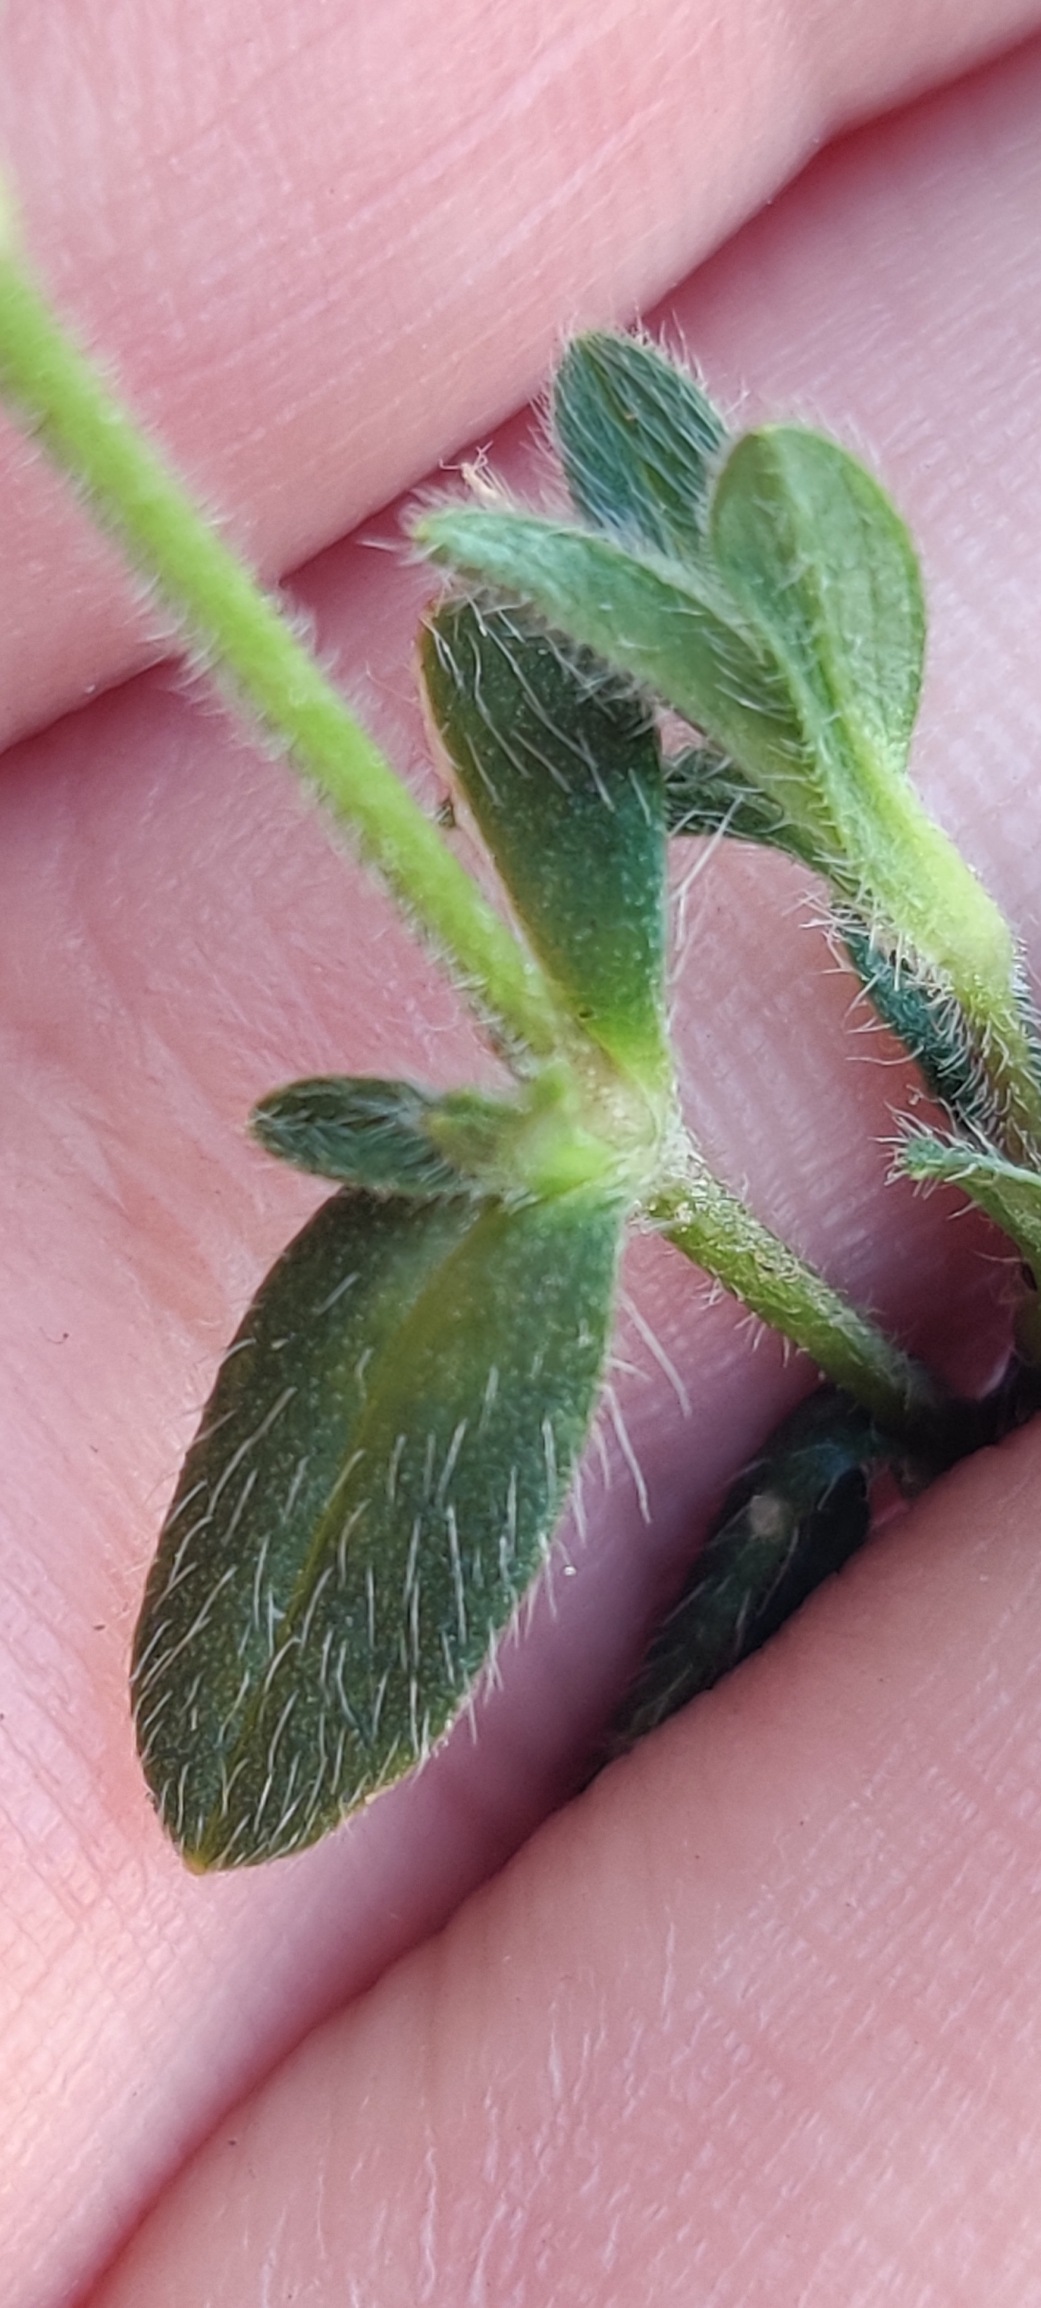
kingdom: Plantae
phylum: Tracheophyta
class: Magnoliopsida
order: Caryophyllales
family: Caryophyllaceae
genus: Cerastium
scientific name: Cerastium fontanum
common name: Almindelig hønsetarm
